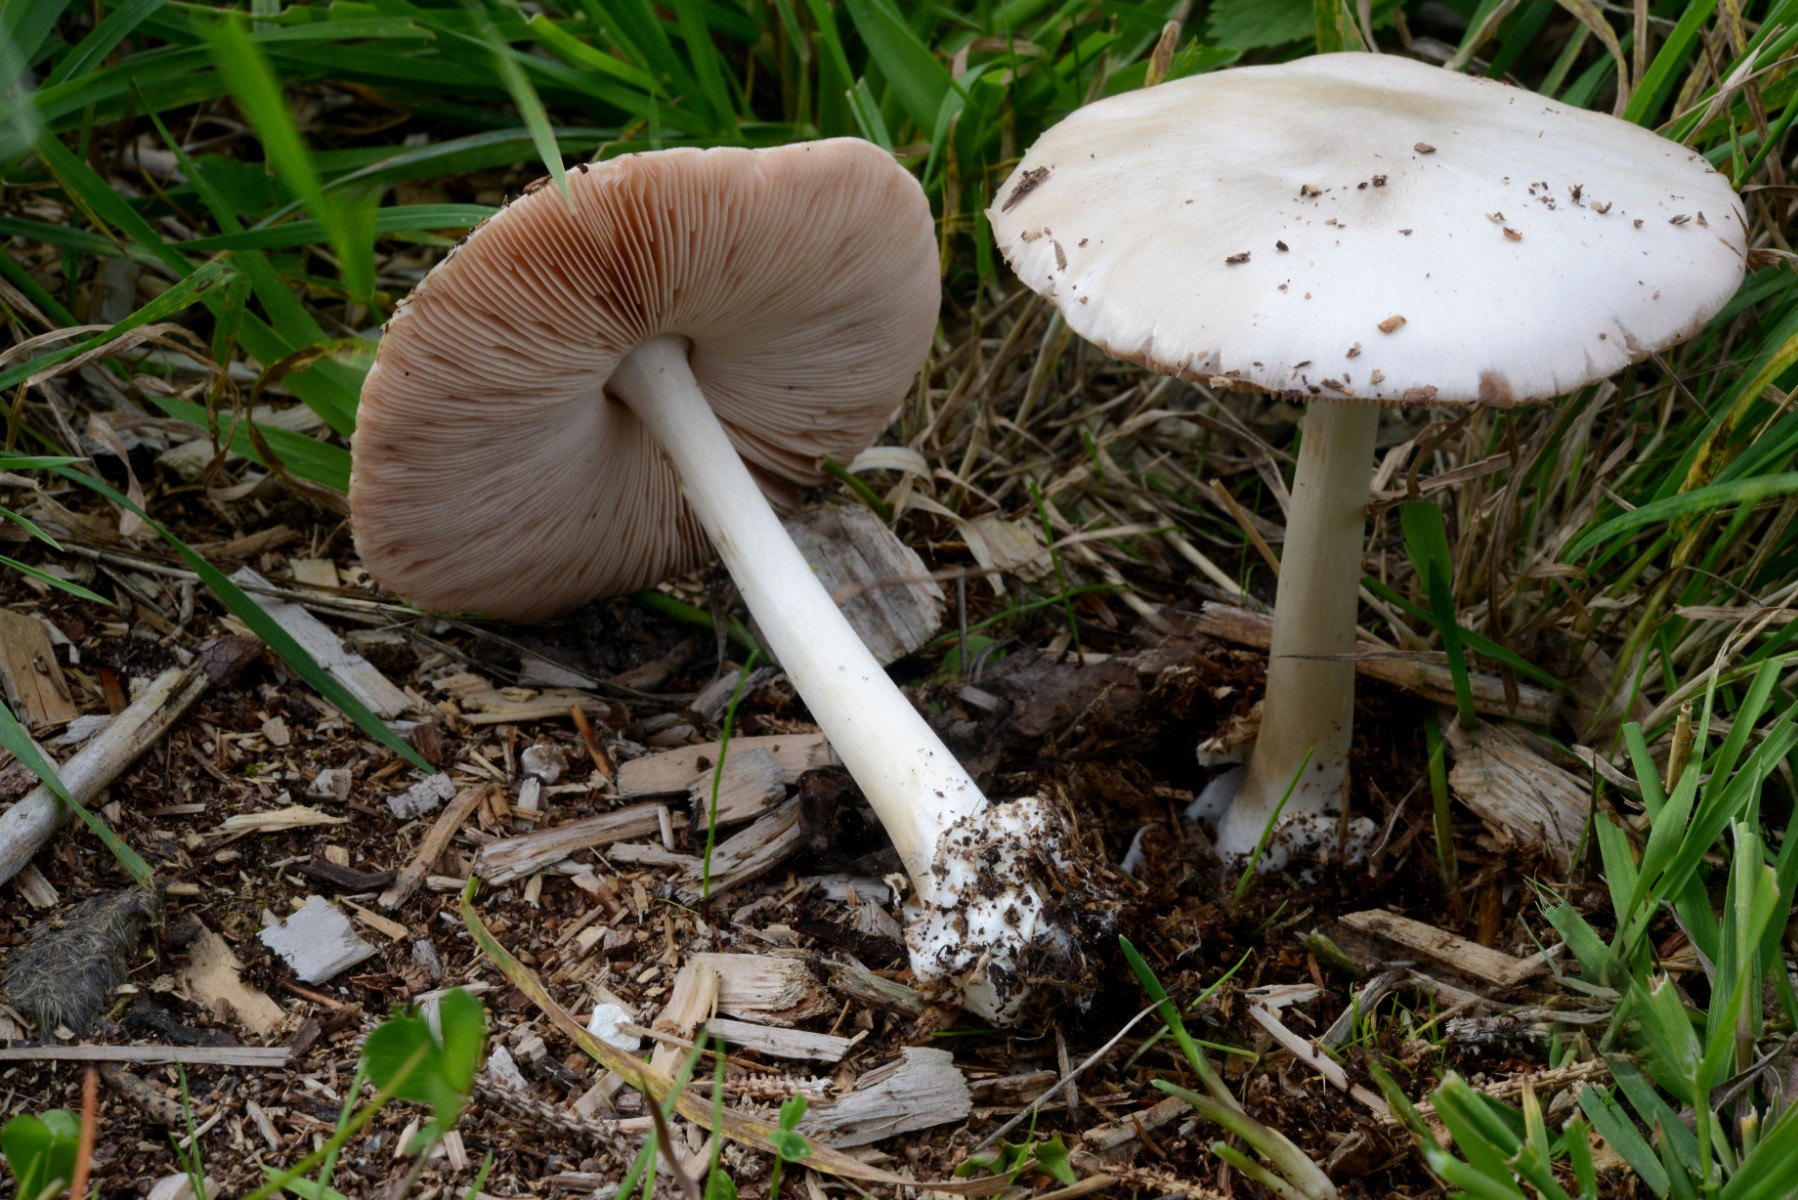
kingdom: Fungi
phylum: Basidiomycota
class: Agaricomycetes
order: Agaricales
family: Pluteaceae
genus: Volvopluteus
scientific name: Volvopluteus gloiocephalus
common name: høj posesvamp
